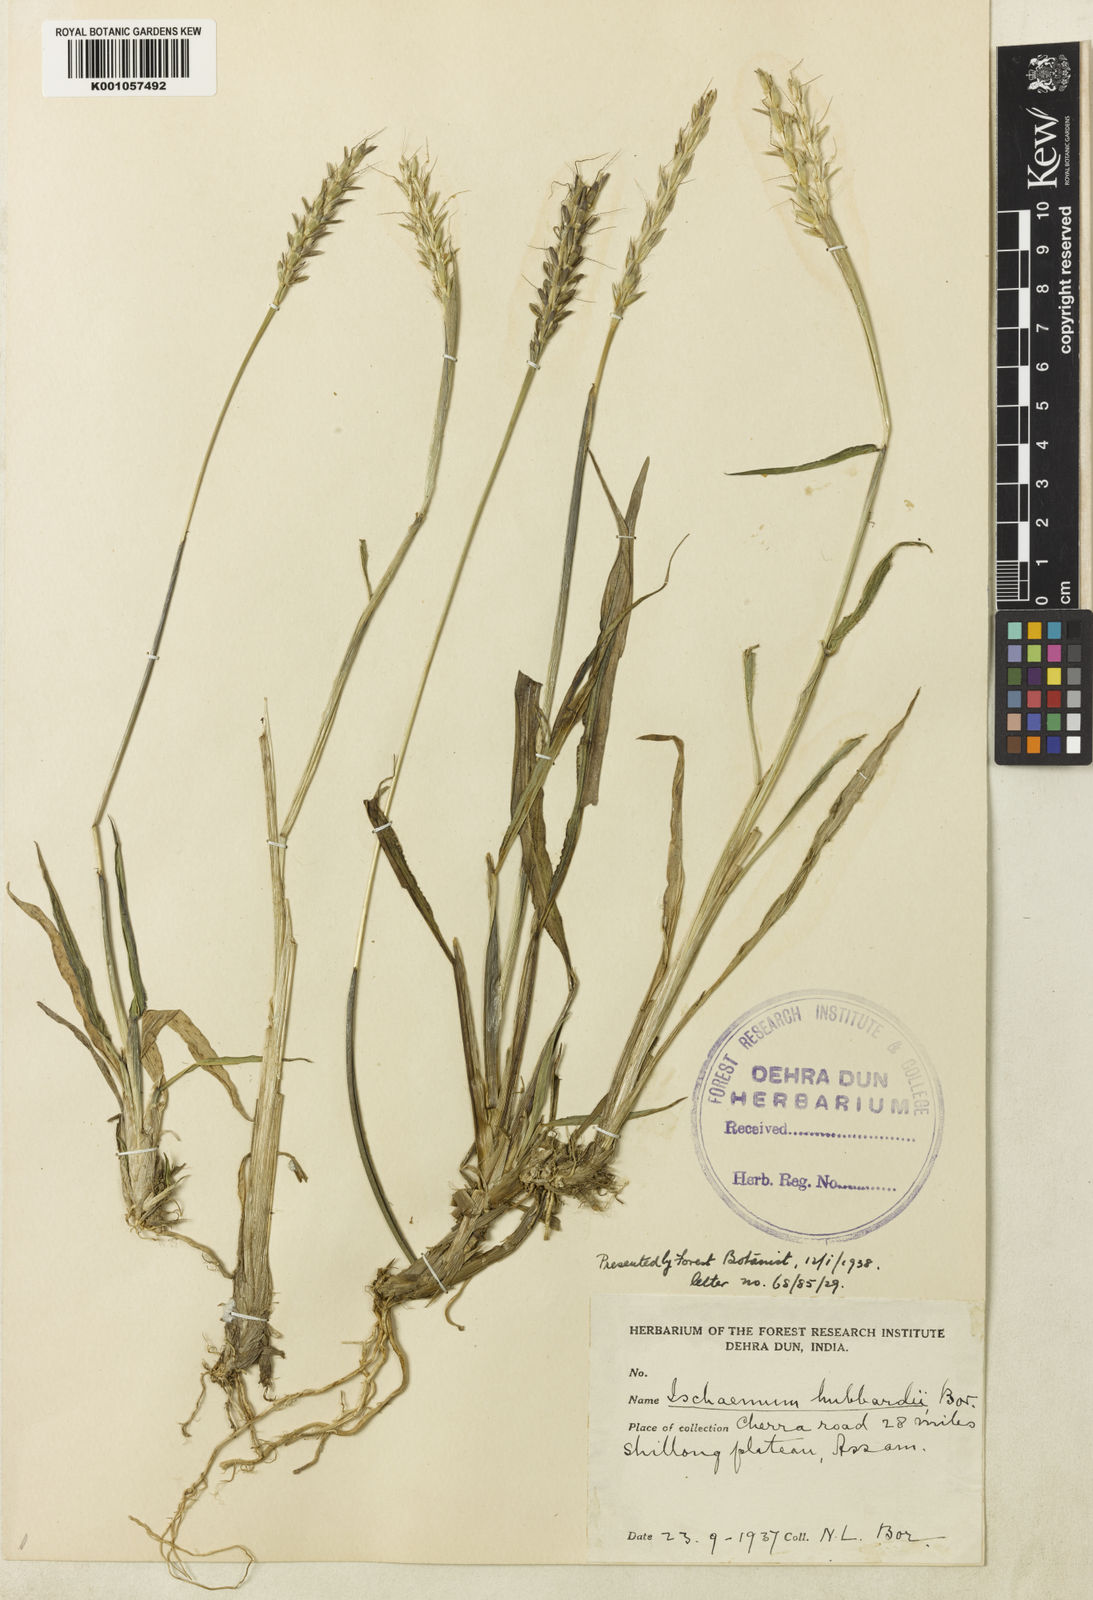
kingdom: Plantae
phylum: Tracheophyta
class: Liliopsida
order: Poales
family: Poaceae
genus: Ischaemum
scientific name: Ischaemum hubbardii
